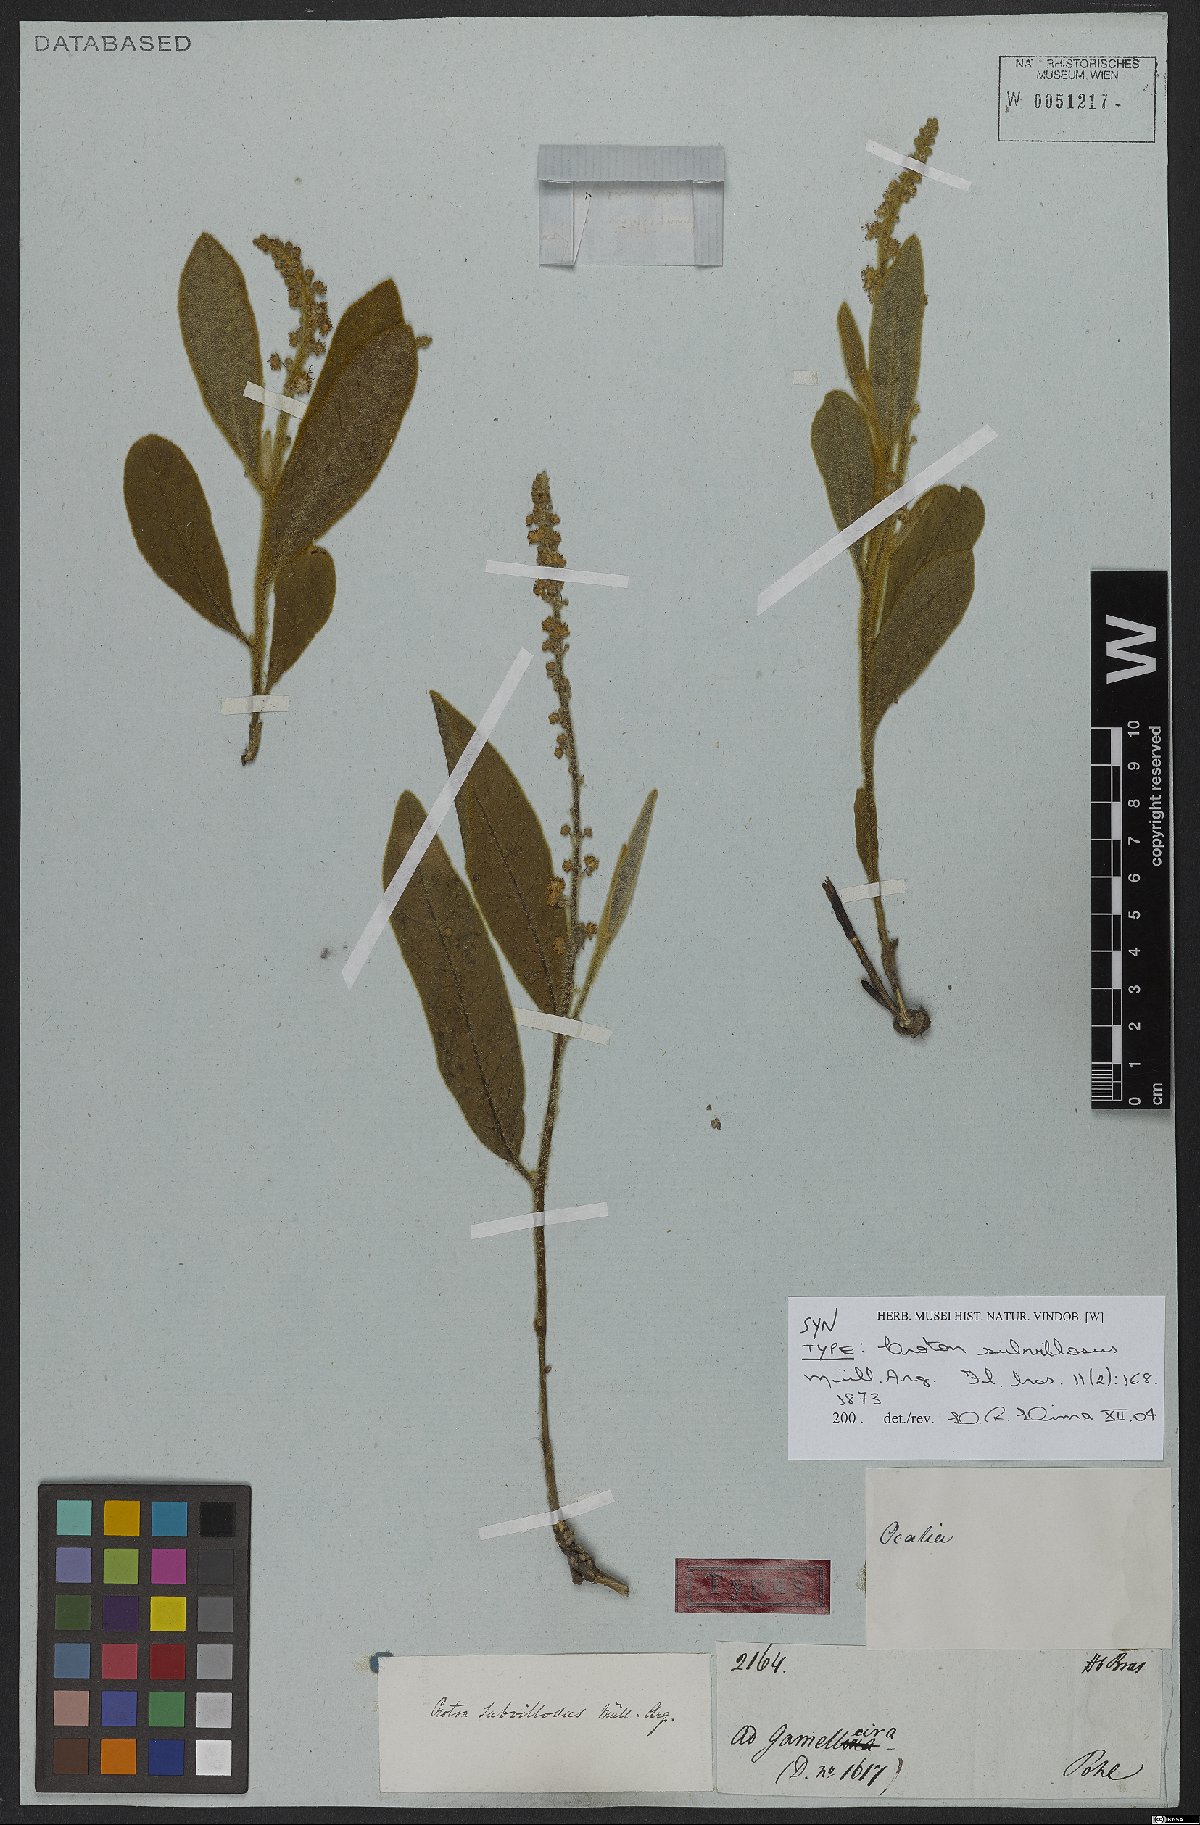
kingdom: Plantae
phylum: Tracheophyta
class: Magnoliopsida
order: Malpighiales
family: Euphorbiaceae
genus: Croton
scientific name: Croton subvillosus
